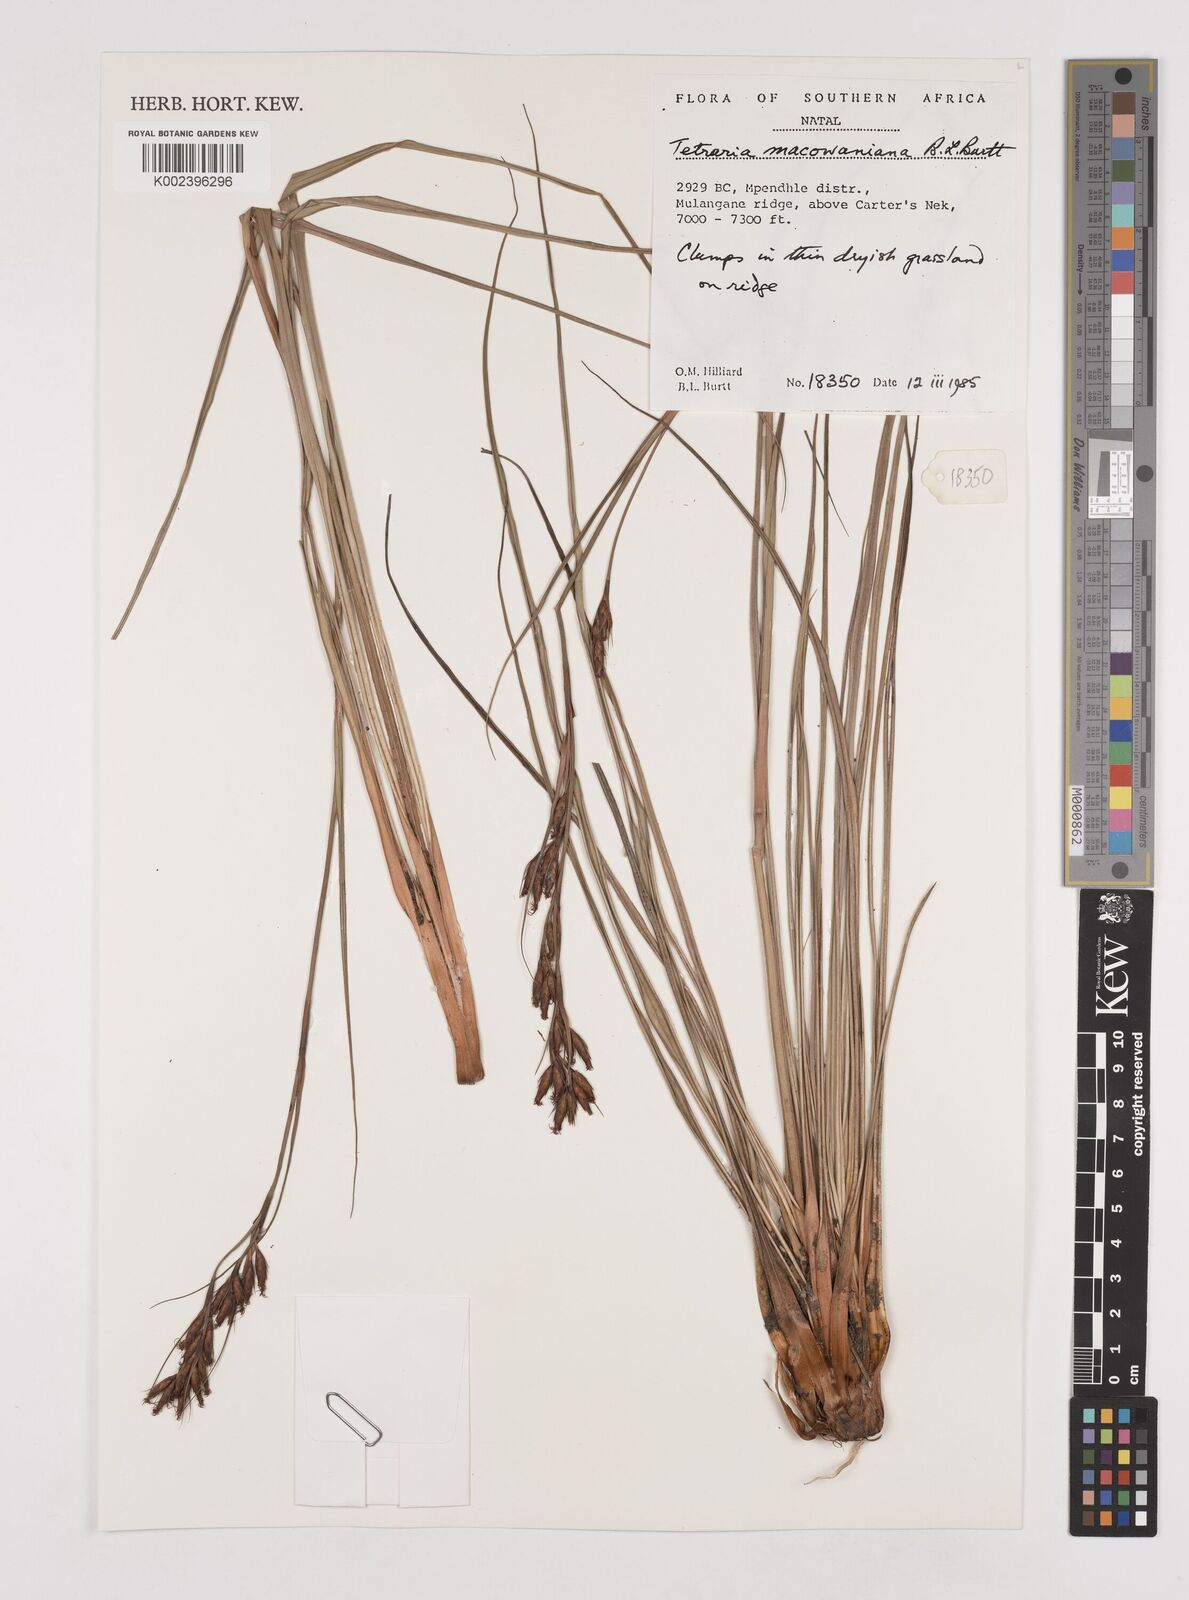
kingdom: Plantae
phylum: Tracheophyta
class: Liliopsida
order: Poales
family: Cyperaceae
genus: Tetraria
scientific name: Tetraria macowaniana
